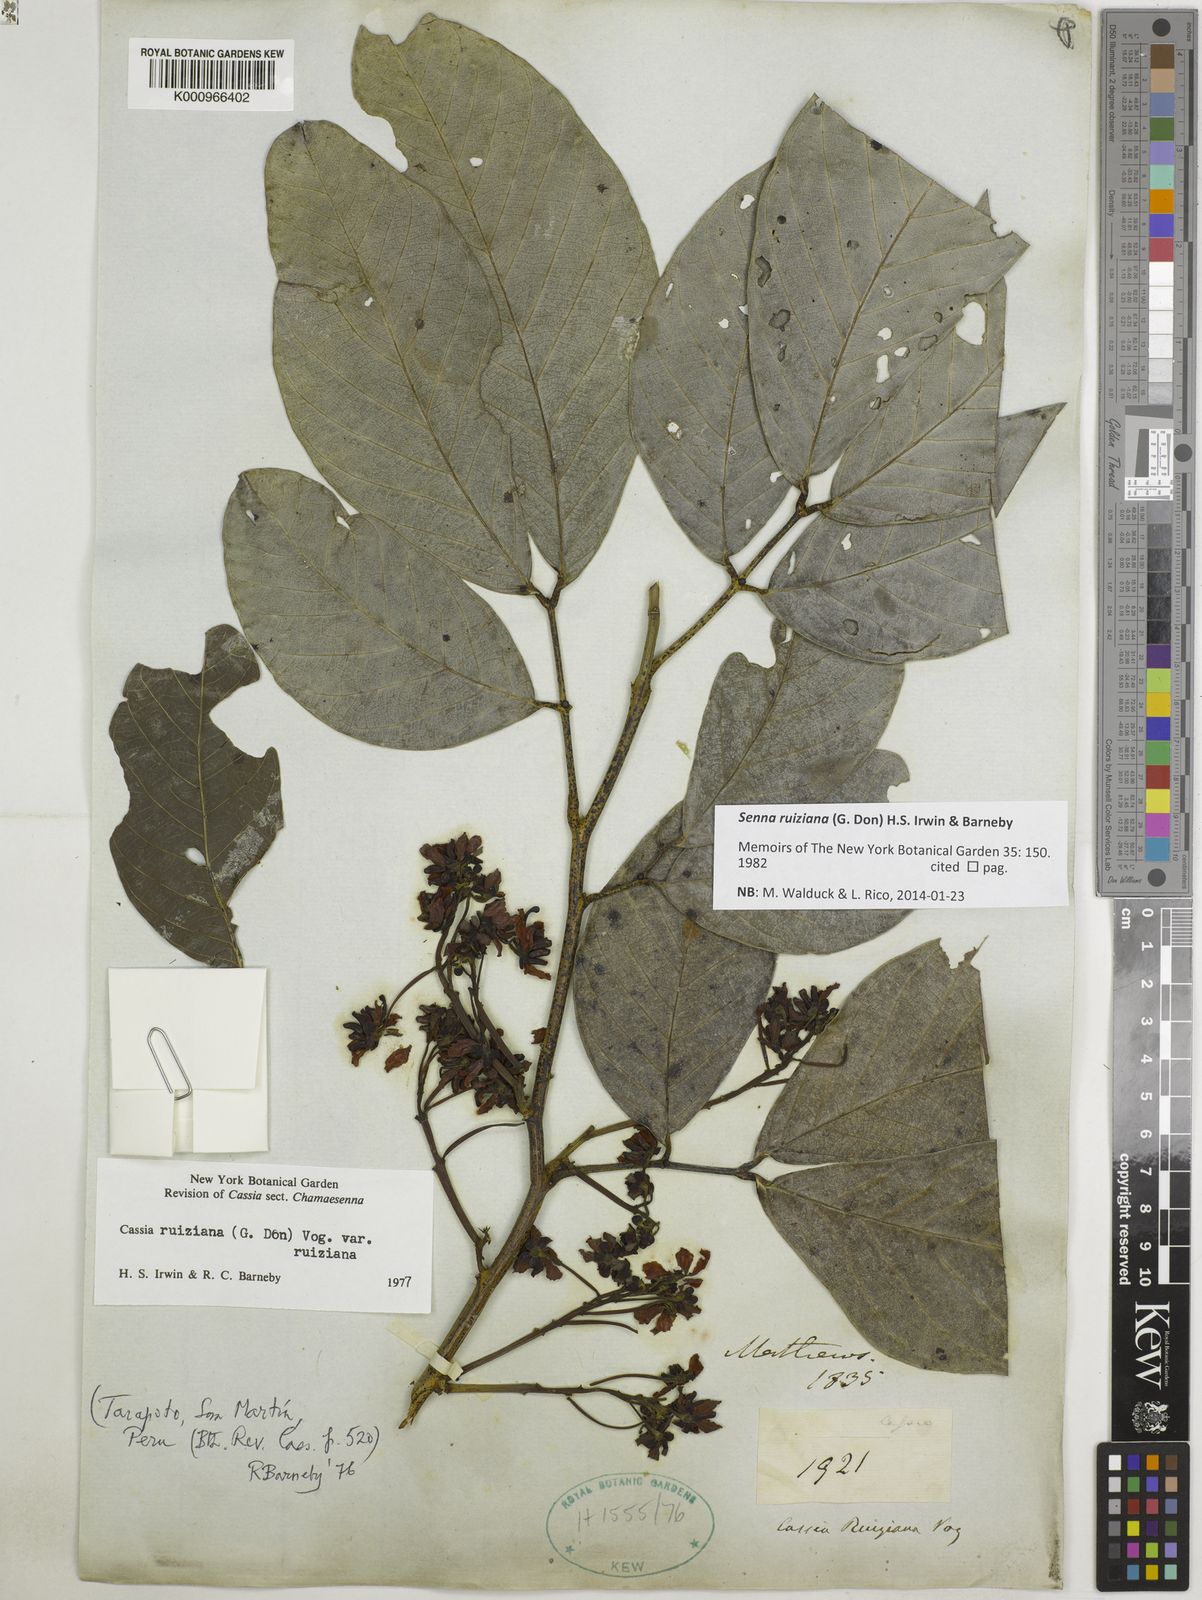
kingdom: Plantae
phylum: Tracheophyta
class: Magnoliopsida
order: Fabales
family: Fabaceae
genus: Senna
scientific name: Senna ruiziana
